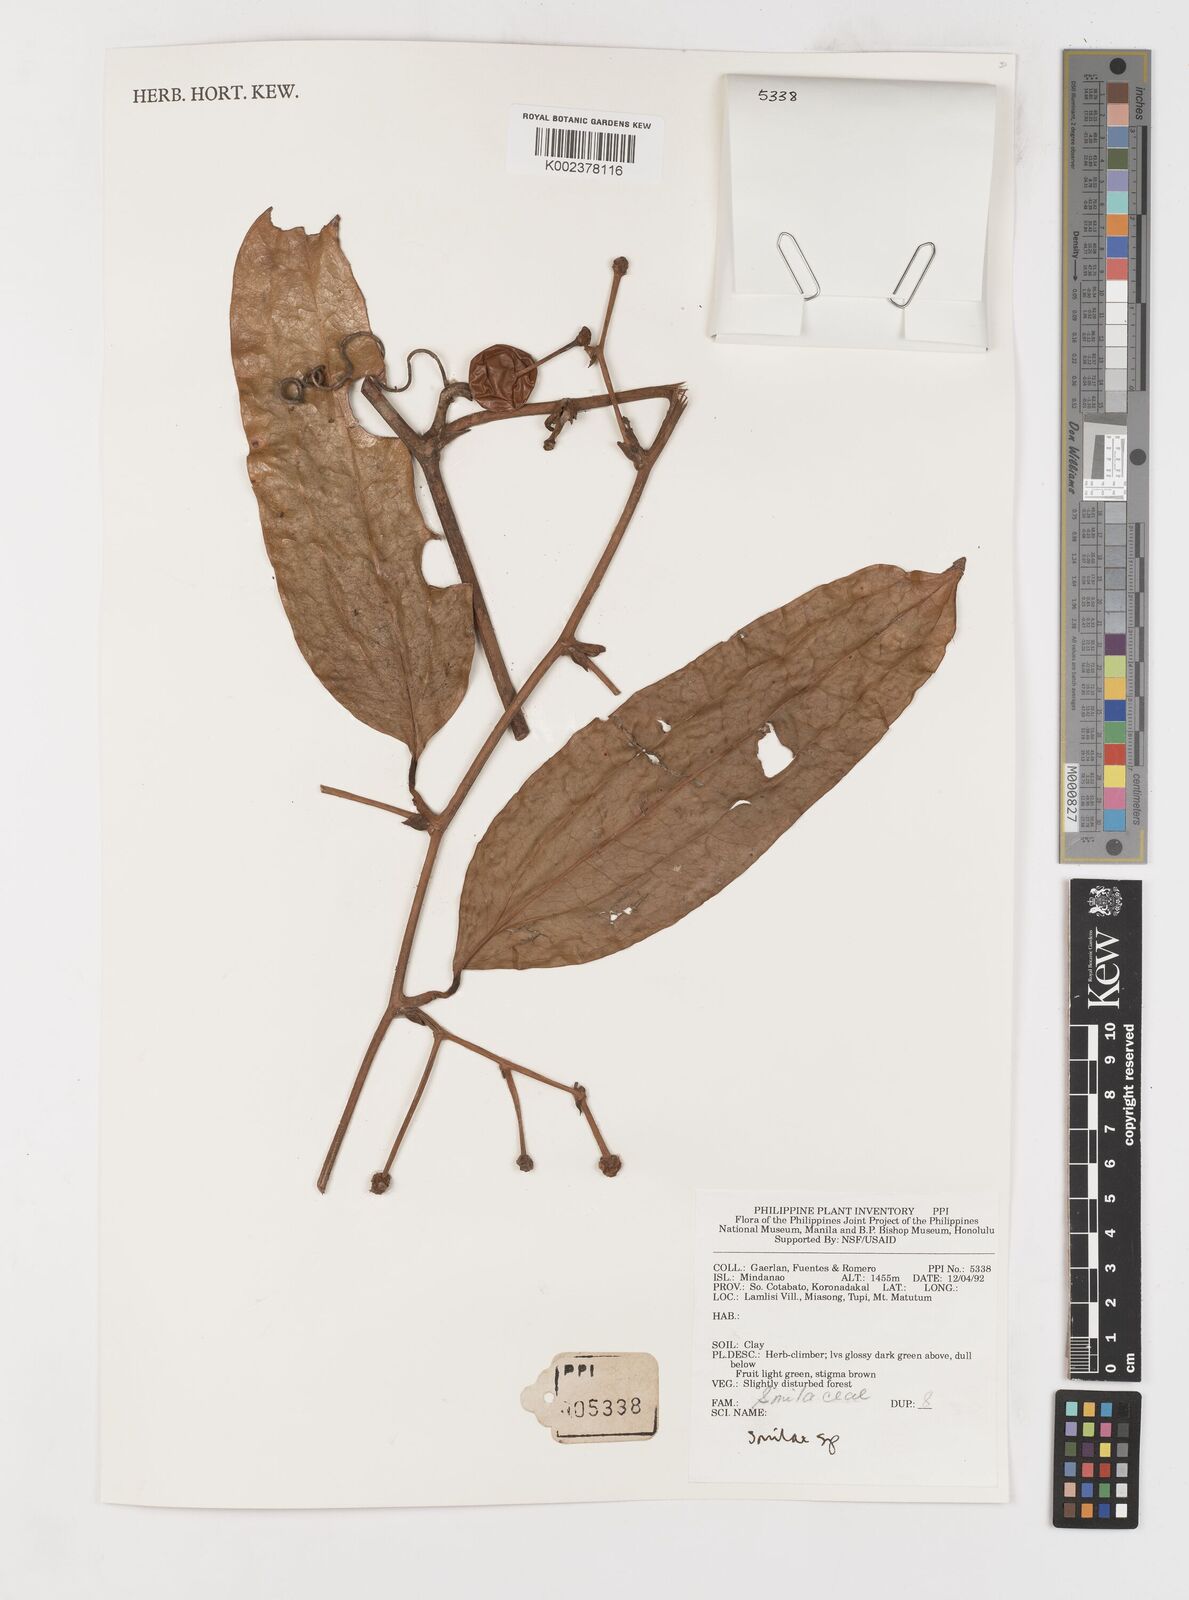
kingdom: Plantae
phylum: Tracheophyta
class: Liliopsida
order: Liliales
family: Smilacaceae
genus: Smilax
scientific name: Smilax
